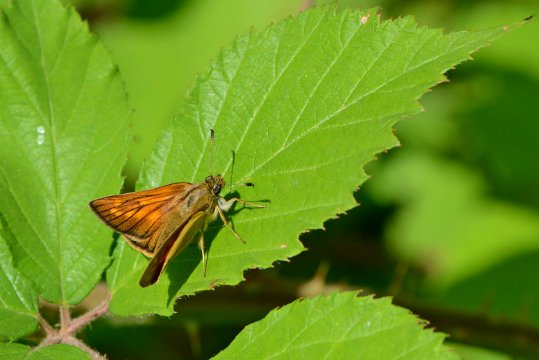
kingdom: Animalia
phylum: Arthropoda
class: Insecta
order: Lepidoptera
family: Hesperiidae
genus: Ochlodes
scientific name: Ochlodes venata
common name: Large Skipper
